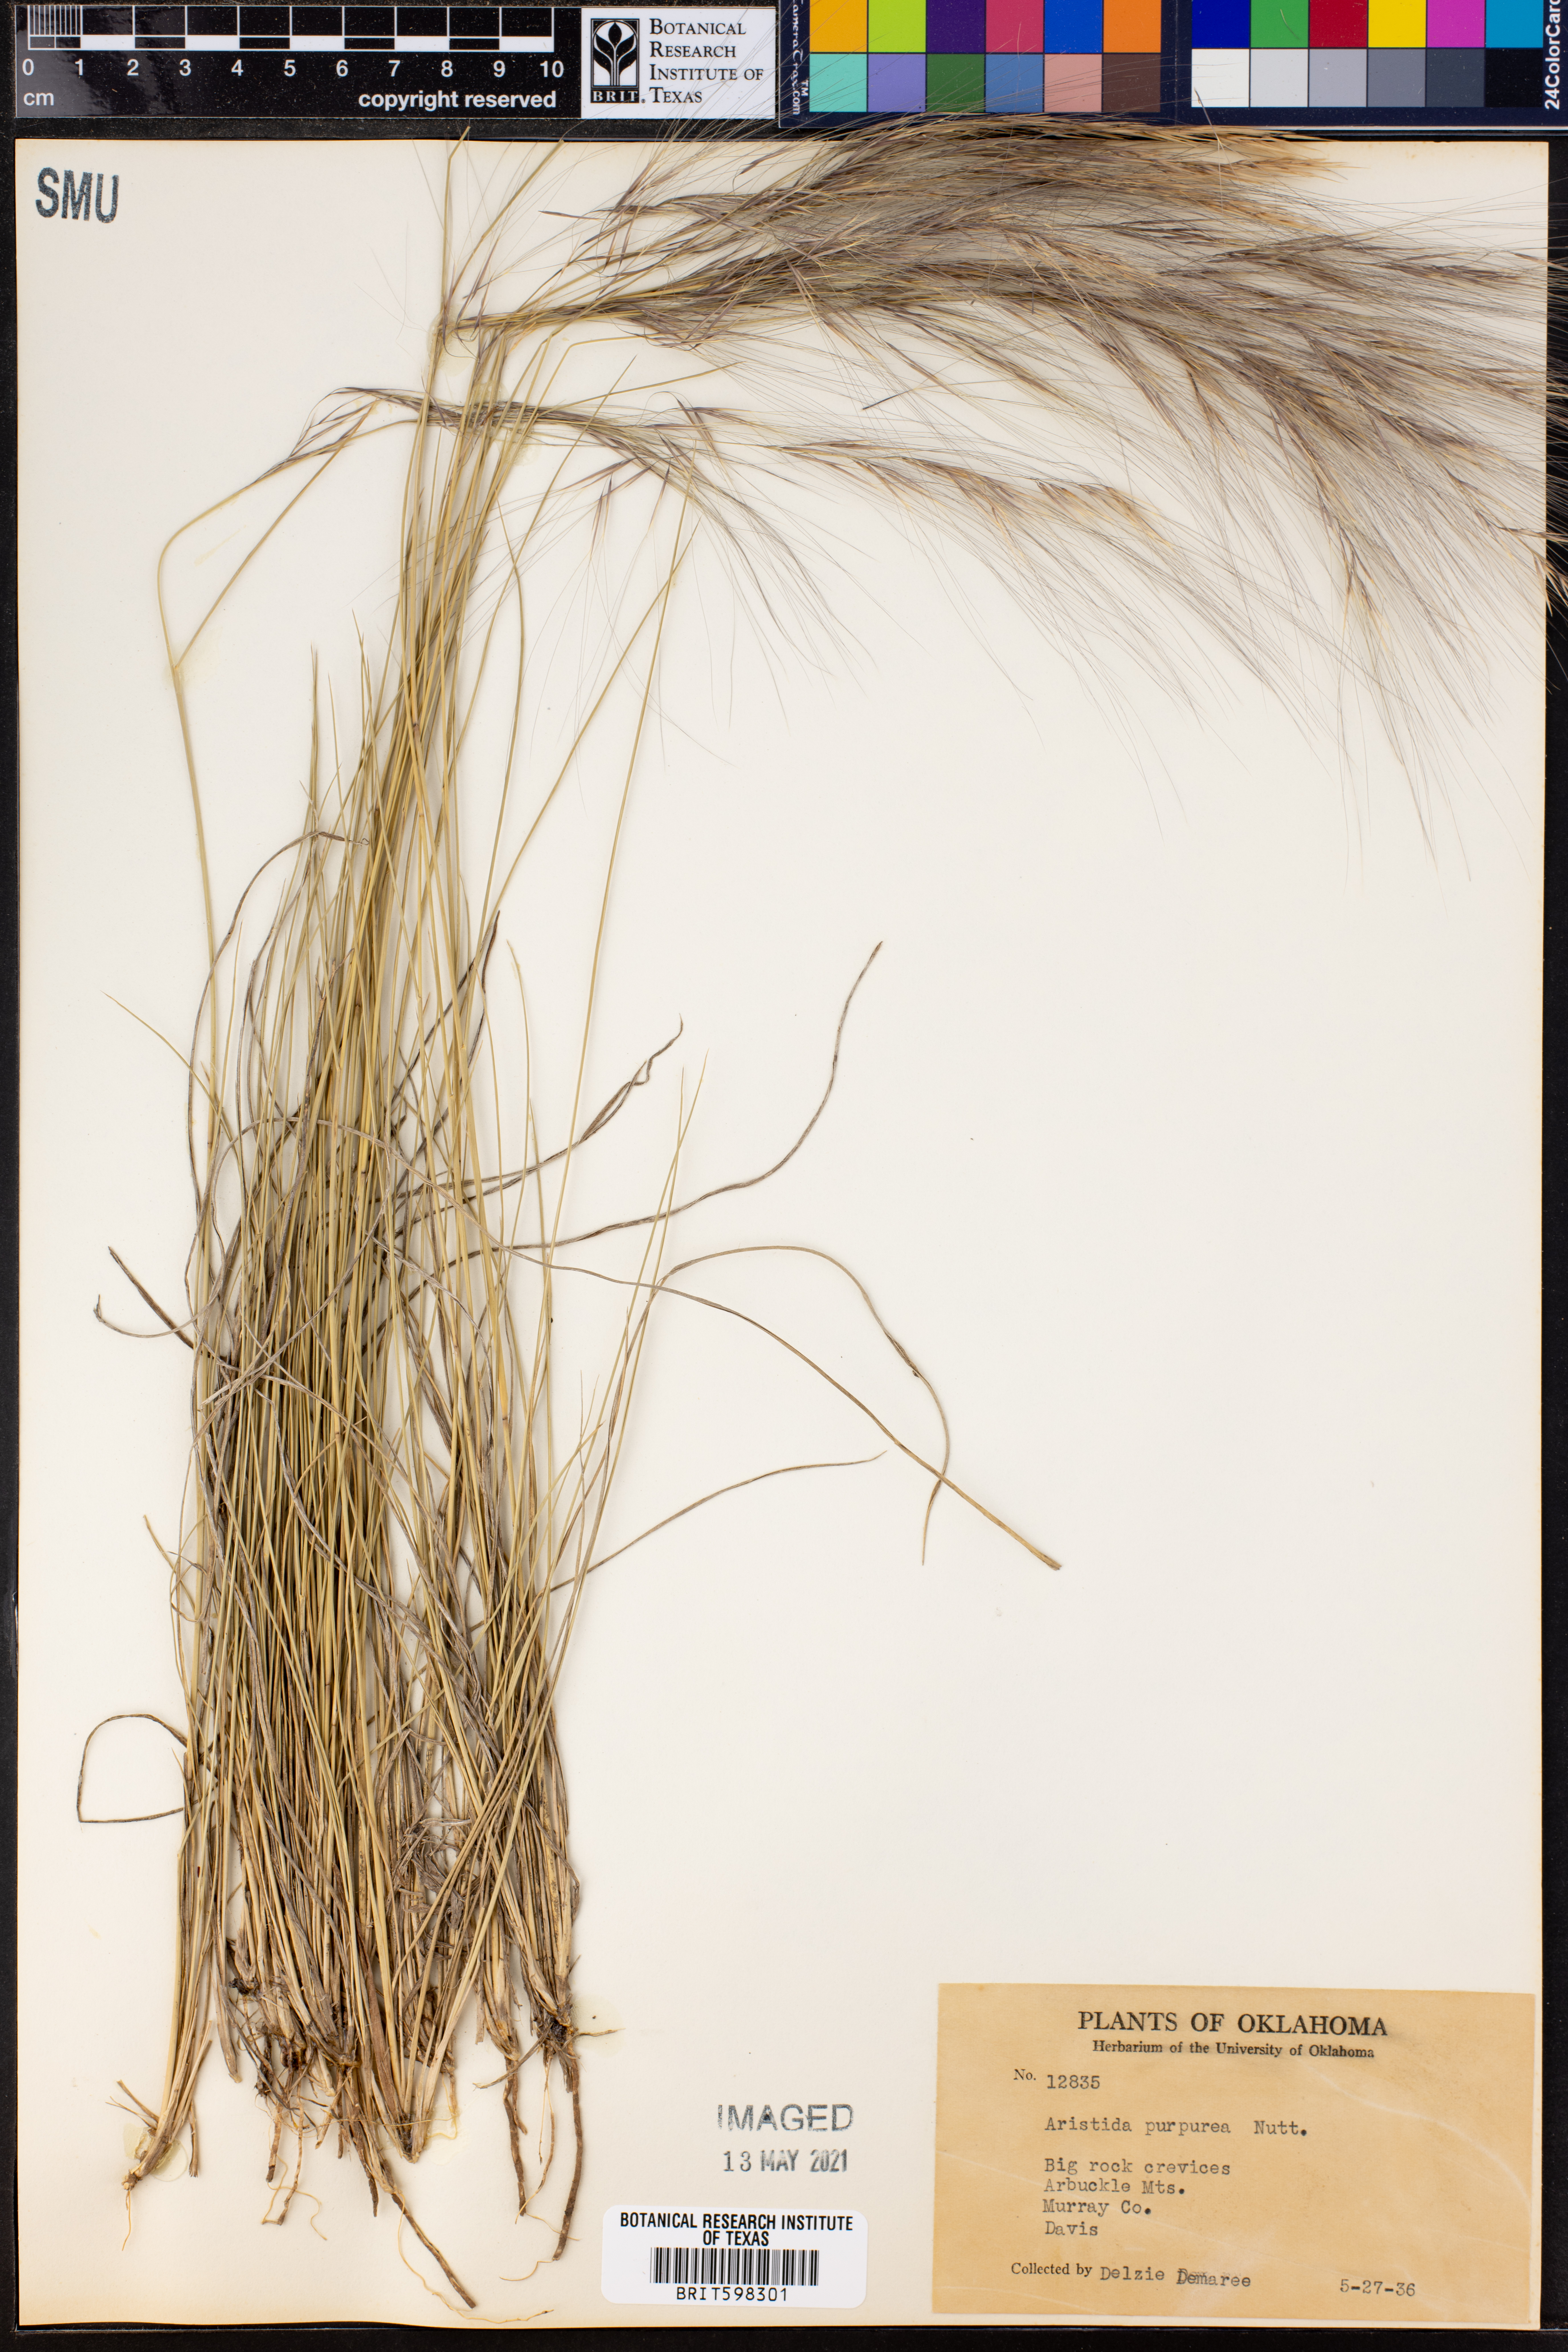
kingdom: Plantae
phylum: Tracheophyta
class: Liliopsida
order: Poales
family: Poaceae
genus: Aristida
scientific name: Aristida purpurea
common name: Purple threeawn
